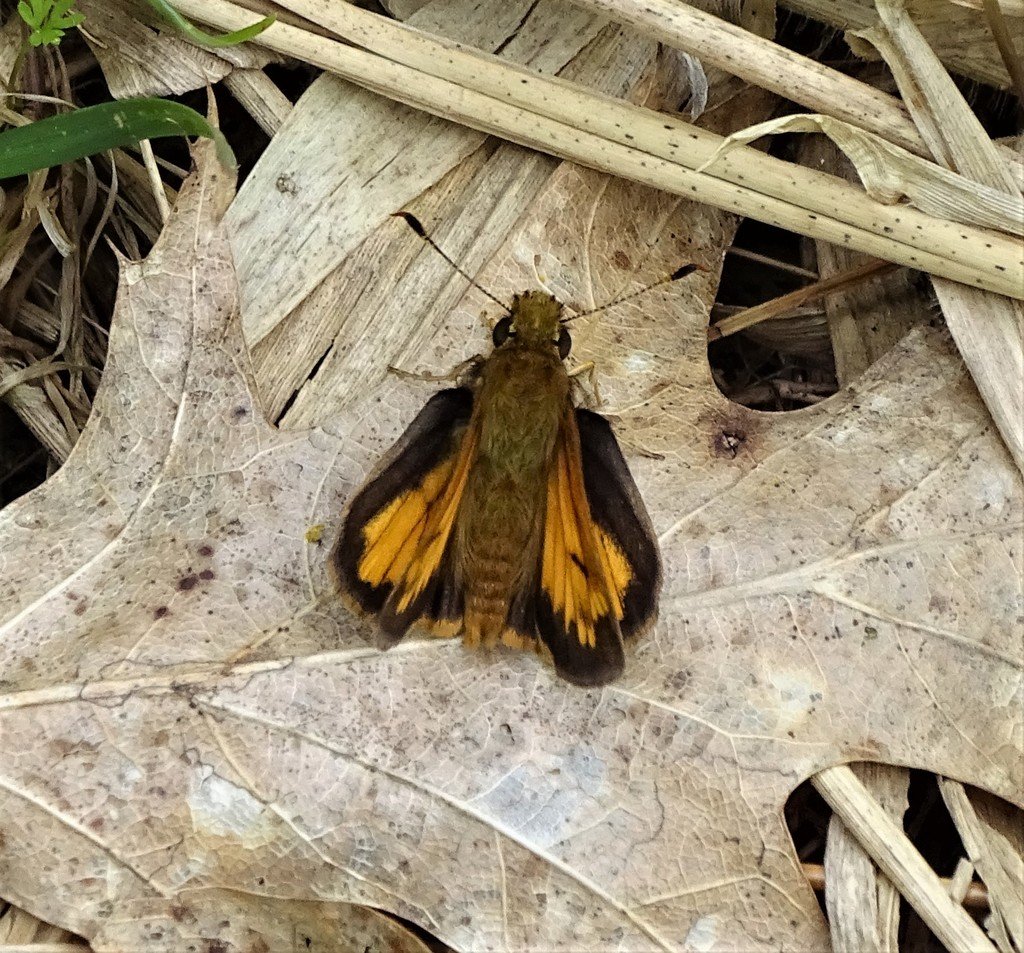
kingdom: Animalia
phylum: Arthropoda
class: Insecta
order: Lepidoptera
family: Hesperiidae
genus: Lon
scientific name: Lon hobomok
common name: Hobomok Skipper
